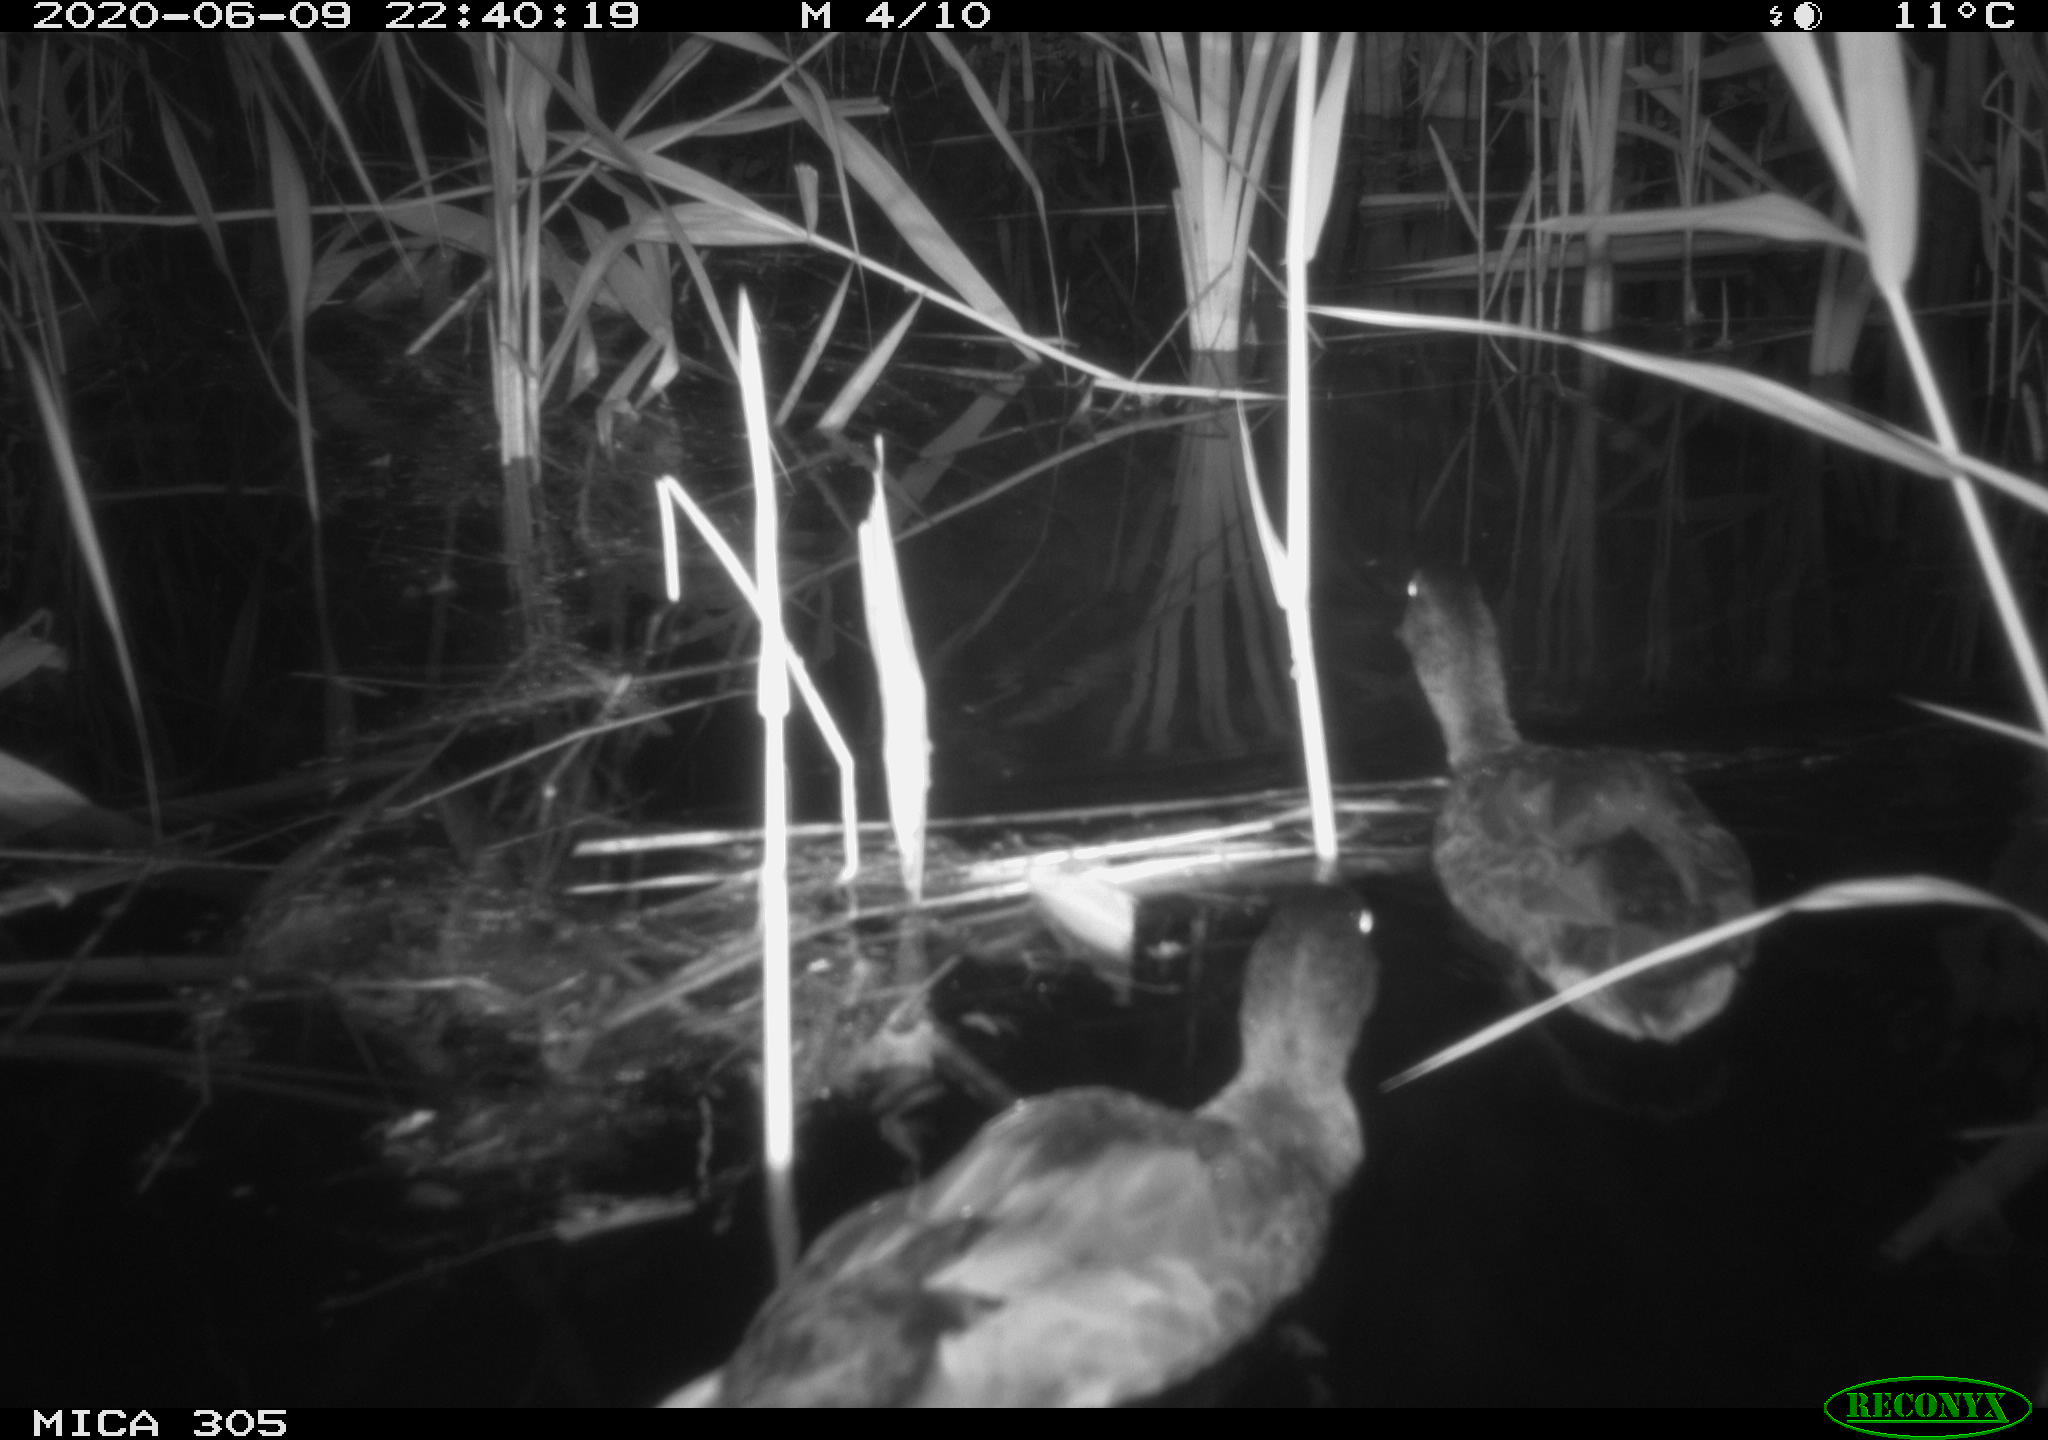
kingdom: Animalia
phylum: Chordata
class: Aves
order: Anseriformes
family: Anatidae
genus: Anas
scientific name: Anas platyrhynchos
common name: Mallard
